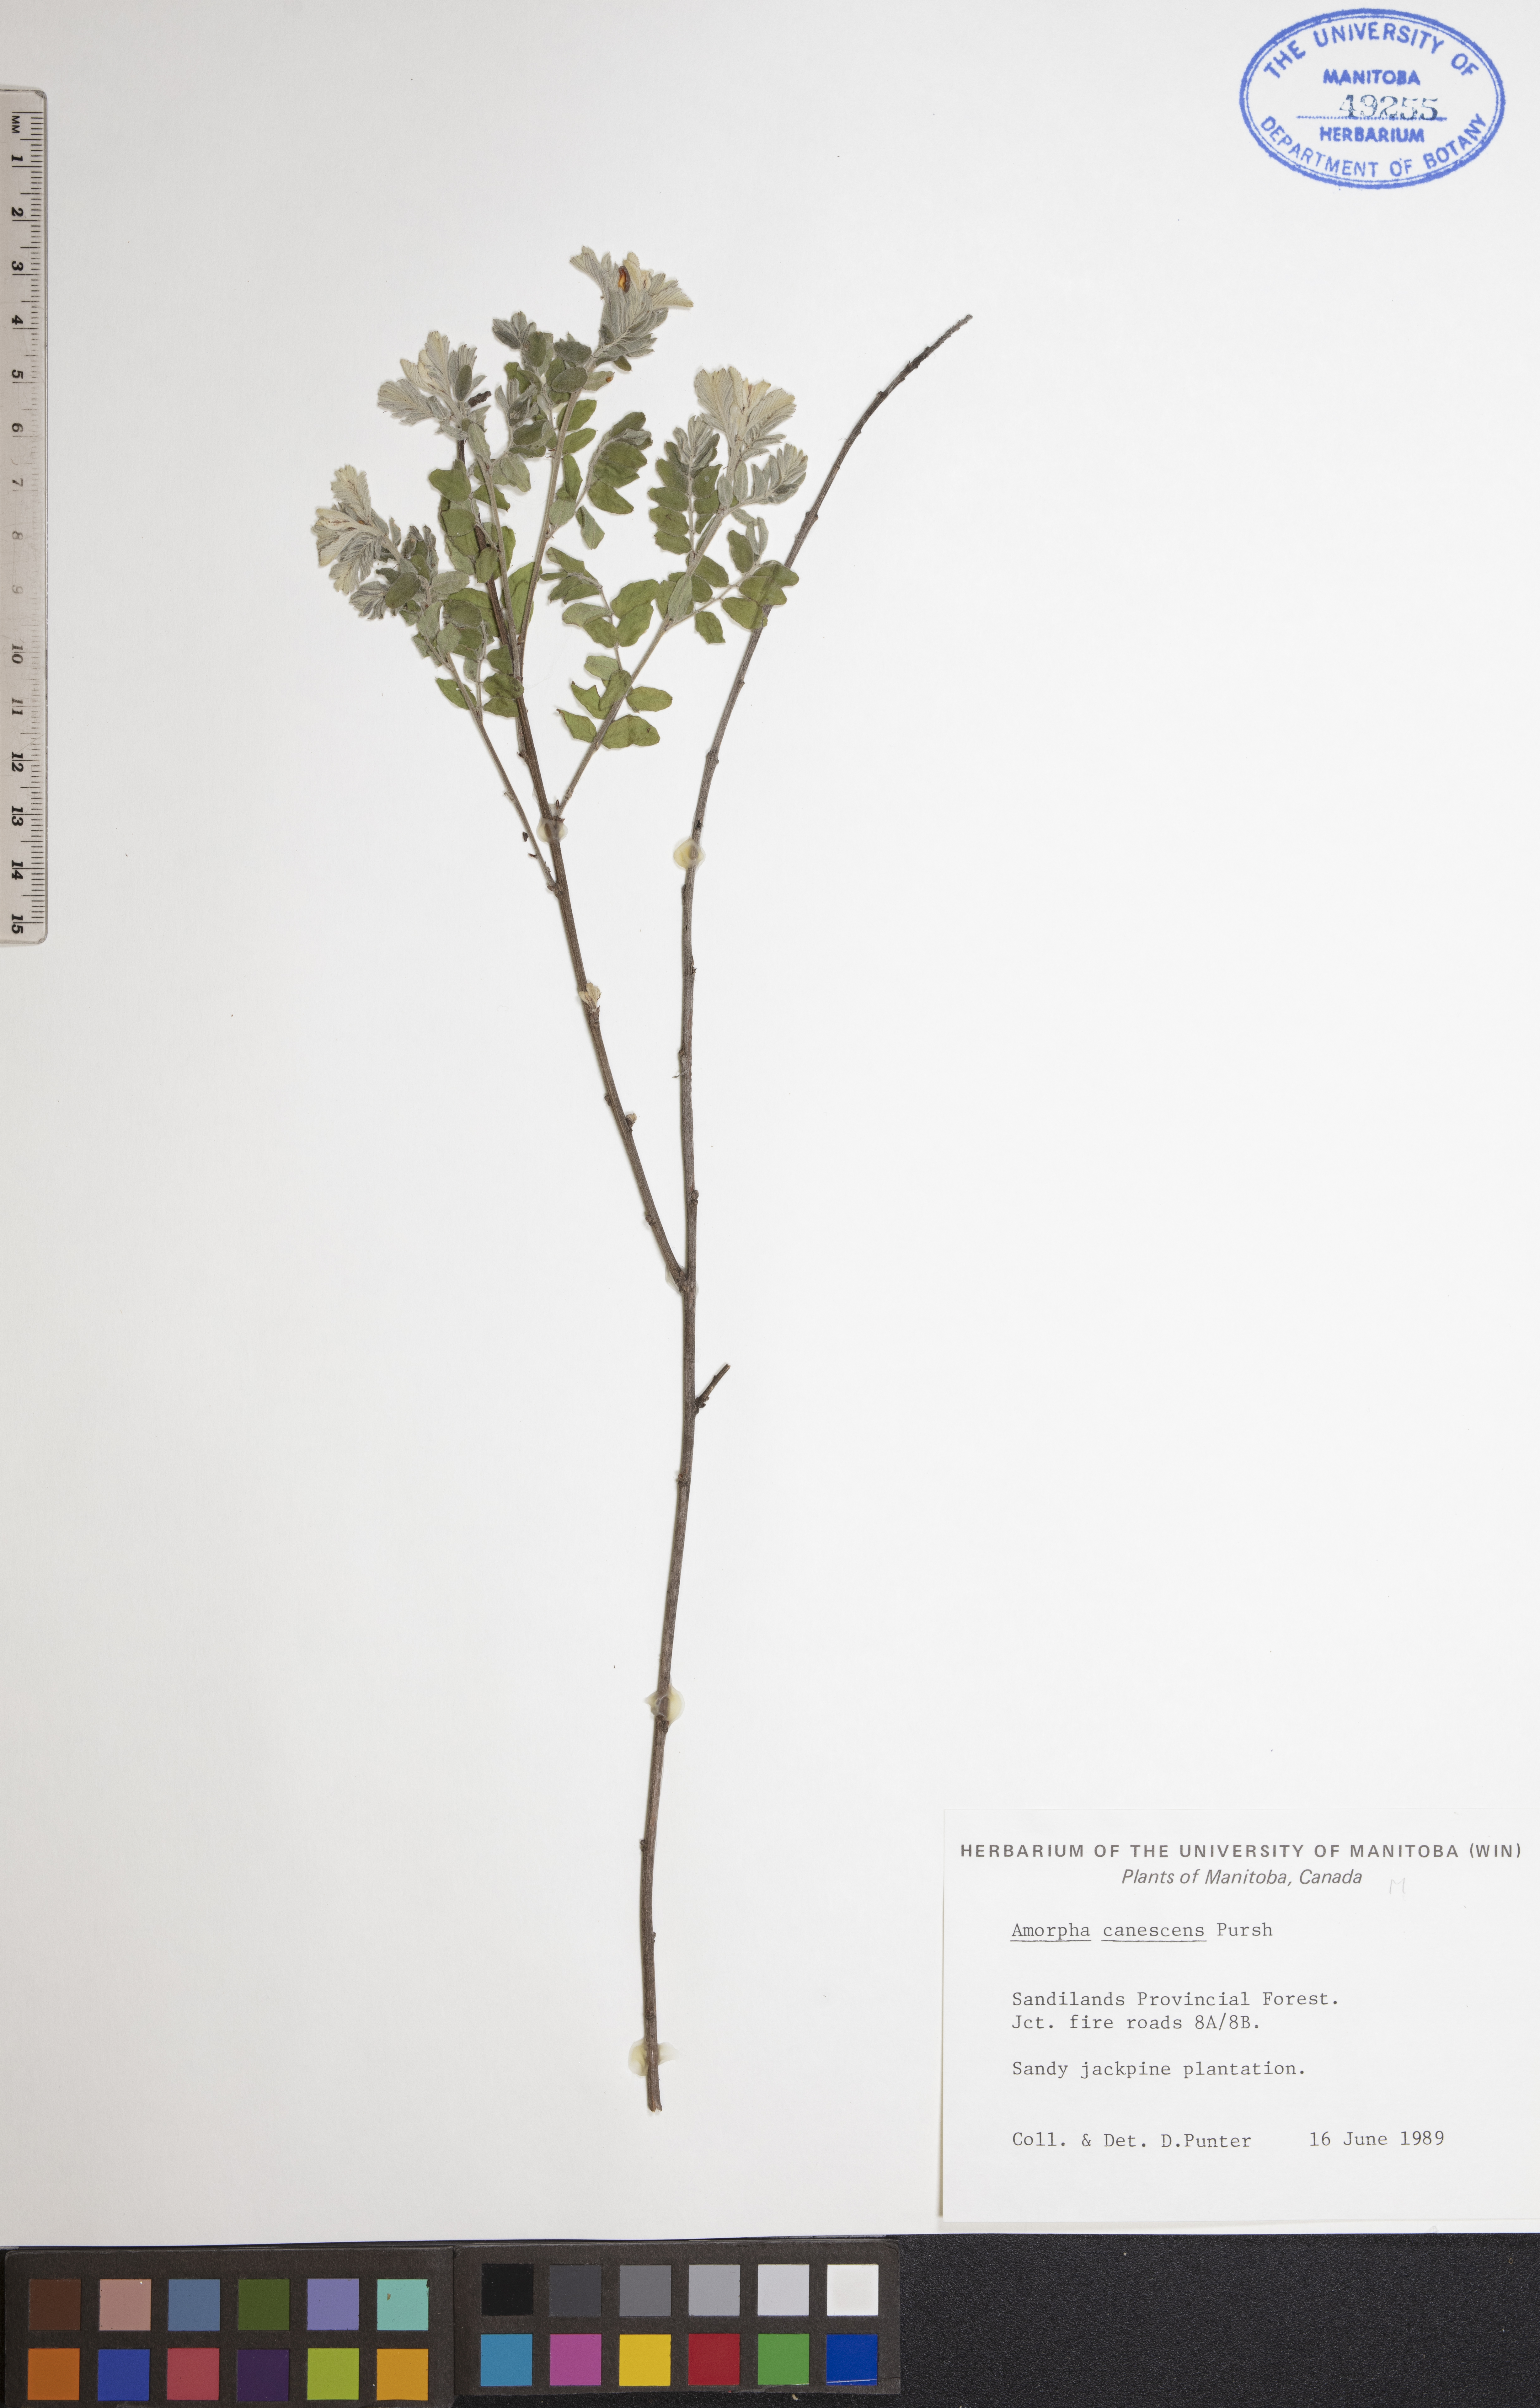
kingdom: Plantae
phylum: Tracheophyta
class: Magnoliopsida
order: Fabales
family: Fabaceae
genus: Amorpha
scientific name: Amorpha canescens
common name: Leadplant
